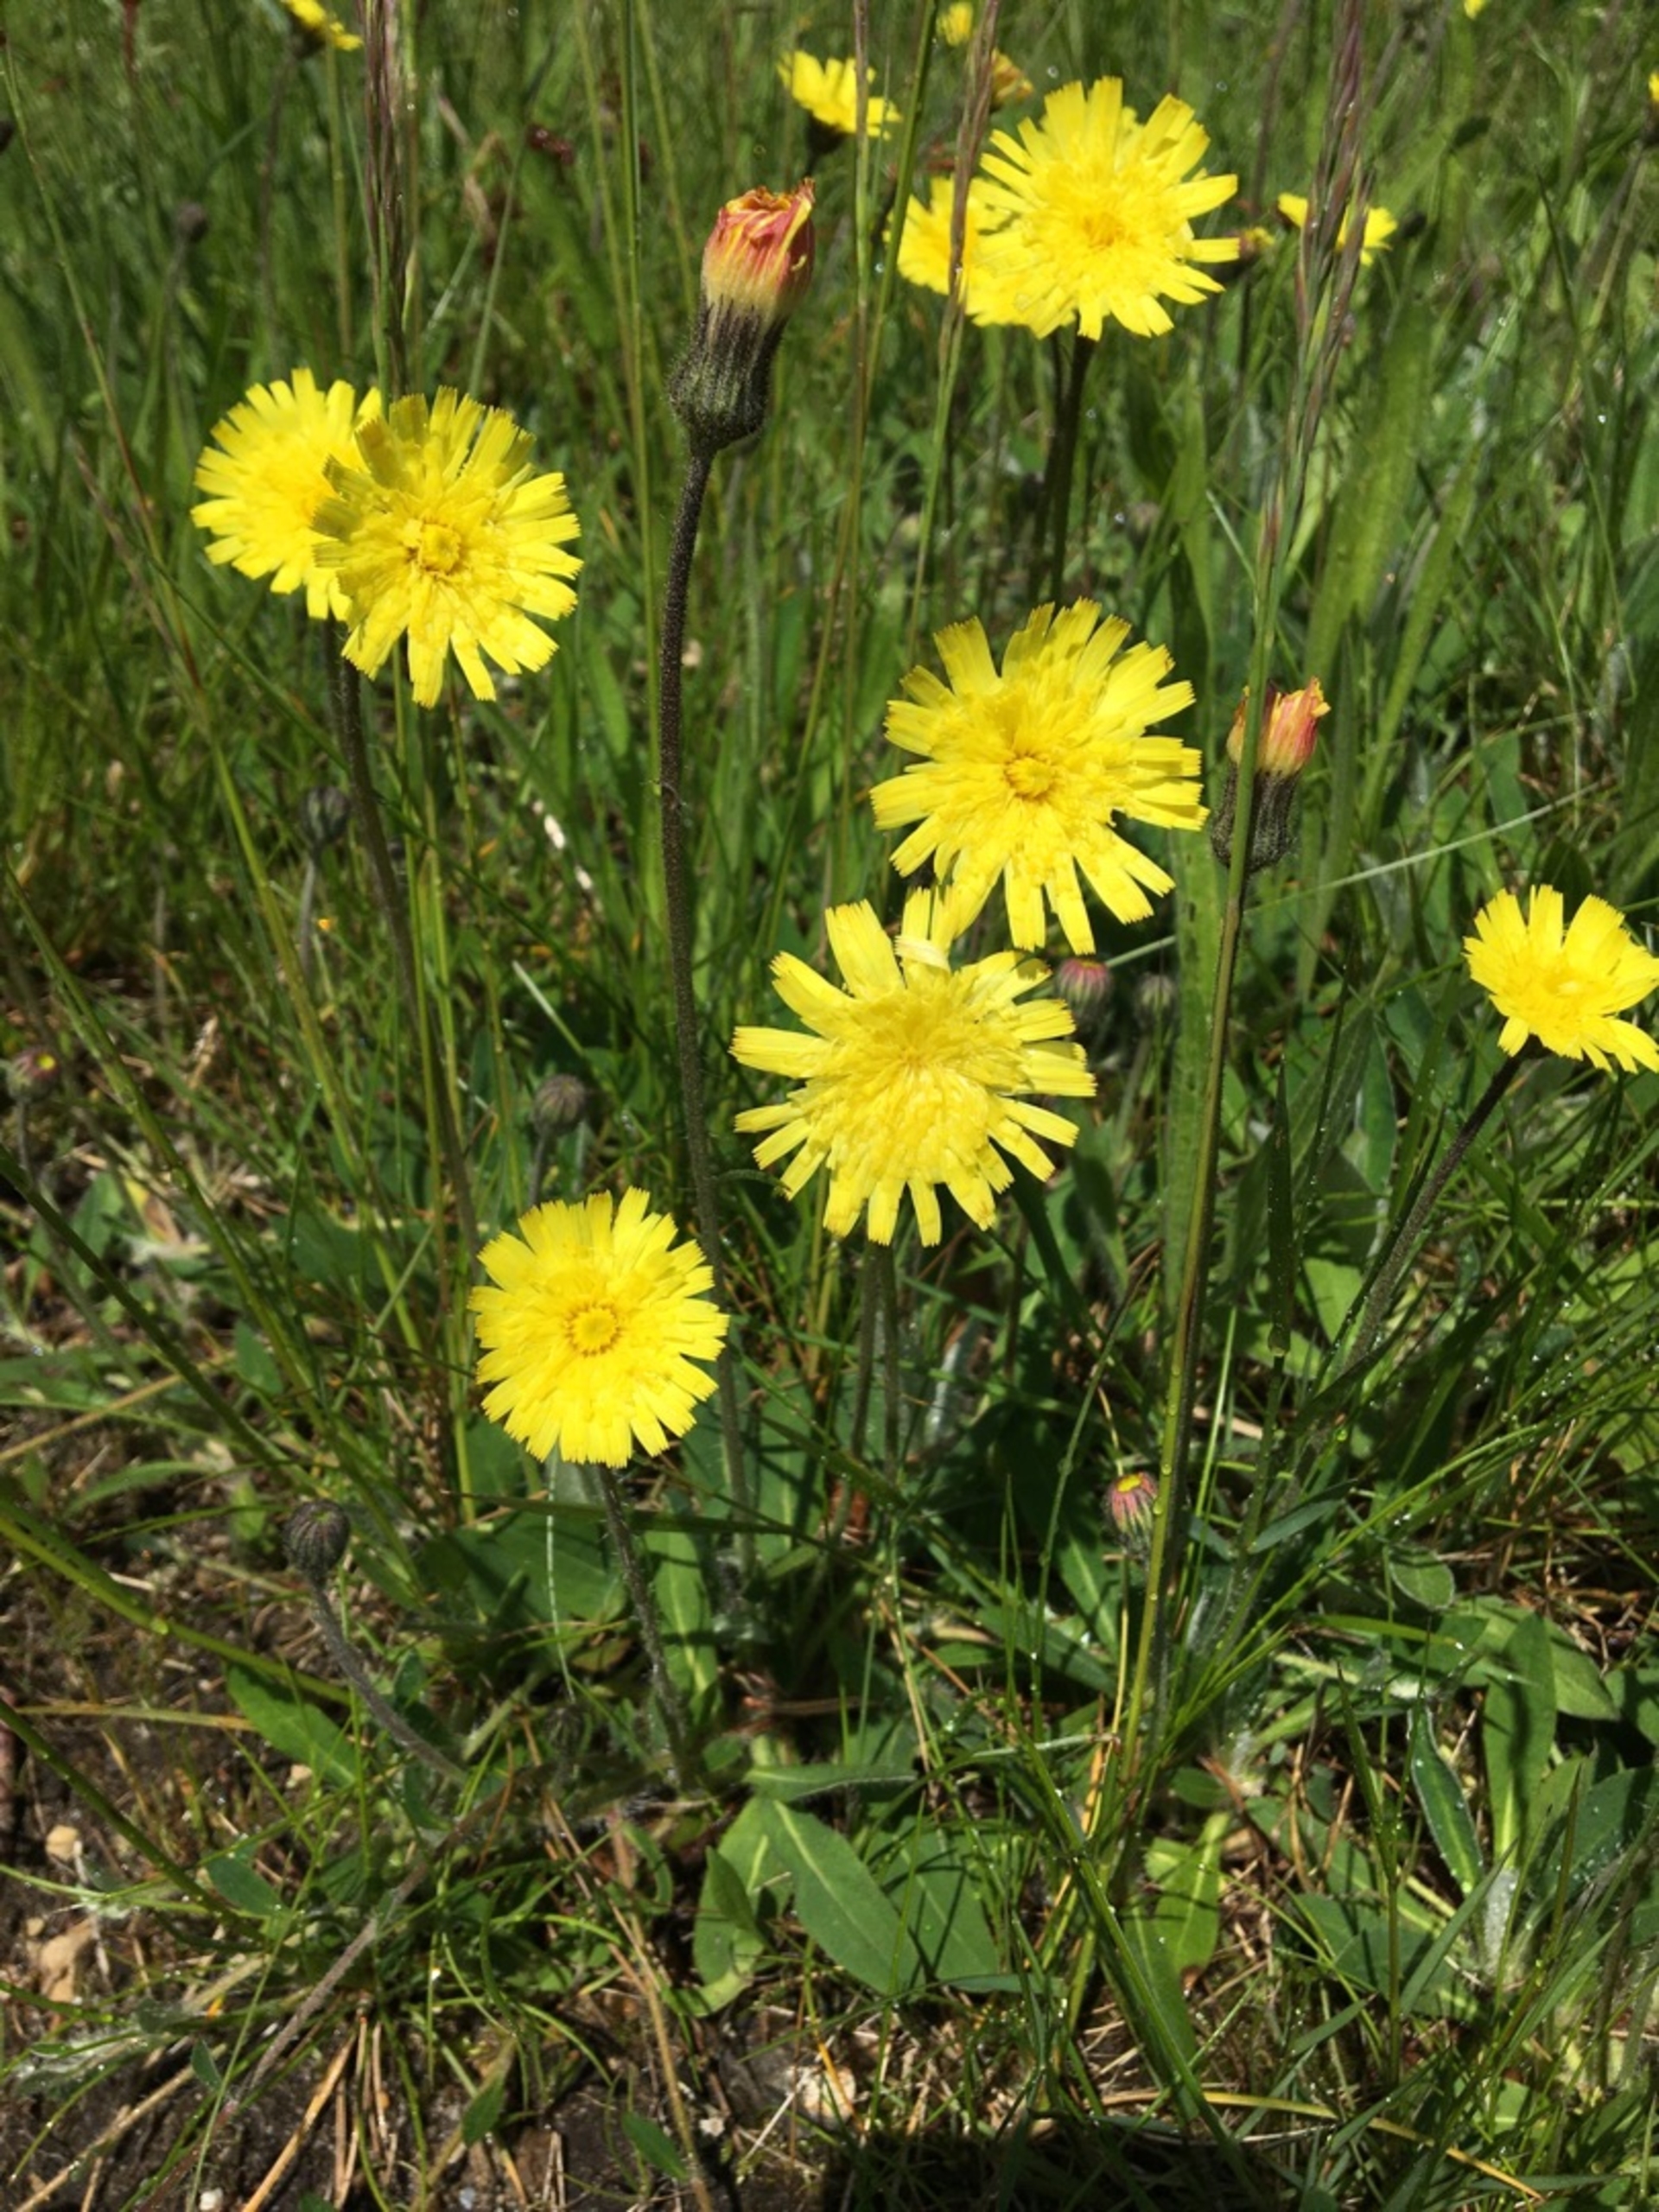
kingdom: Plantae
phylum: Tracheophyta
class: Magnoliopsida
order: Asterales
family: Asteraceae
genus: Pilosella
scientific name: Pilosella officinarum
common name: Håret høgeurt
